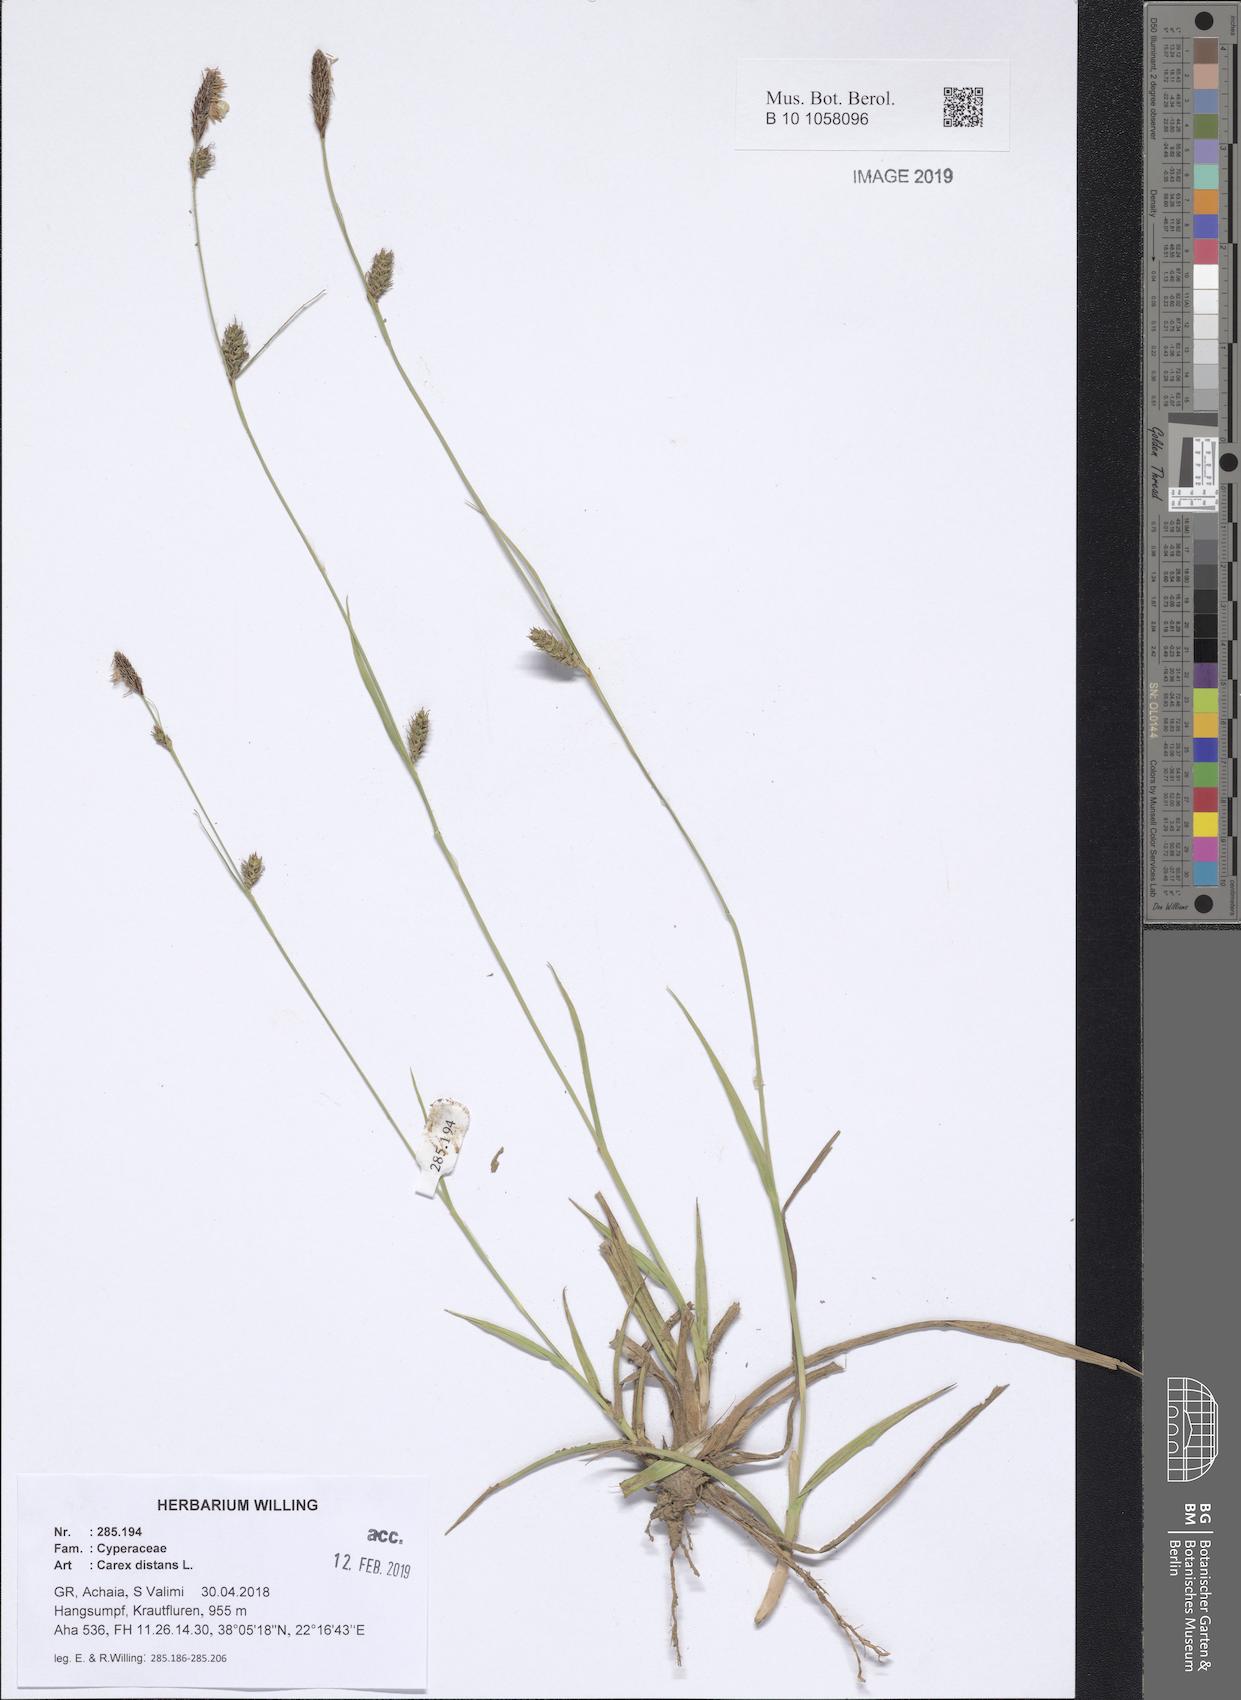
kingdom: Plantae
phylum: Tracheophyta
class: Liliopsida
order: Poales
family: Cyperaceae
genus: Carex
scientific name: Carex distans
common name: Distant sedge
